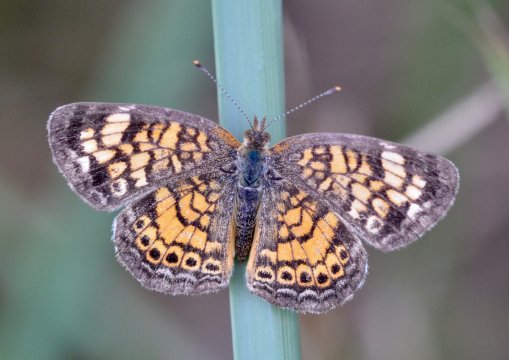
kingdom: Animalia
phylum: Arthropoda
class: Insecta
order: Lepidoptera
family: Nymphalidae
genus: Phyciodes
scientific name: Phyciodes tharos
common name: Pearl Crescent
